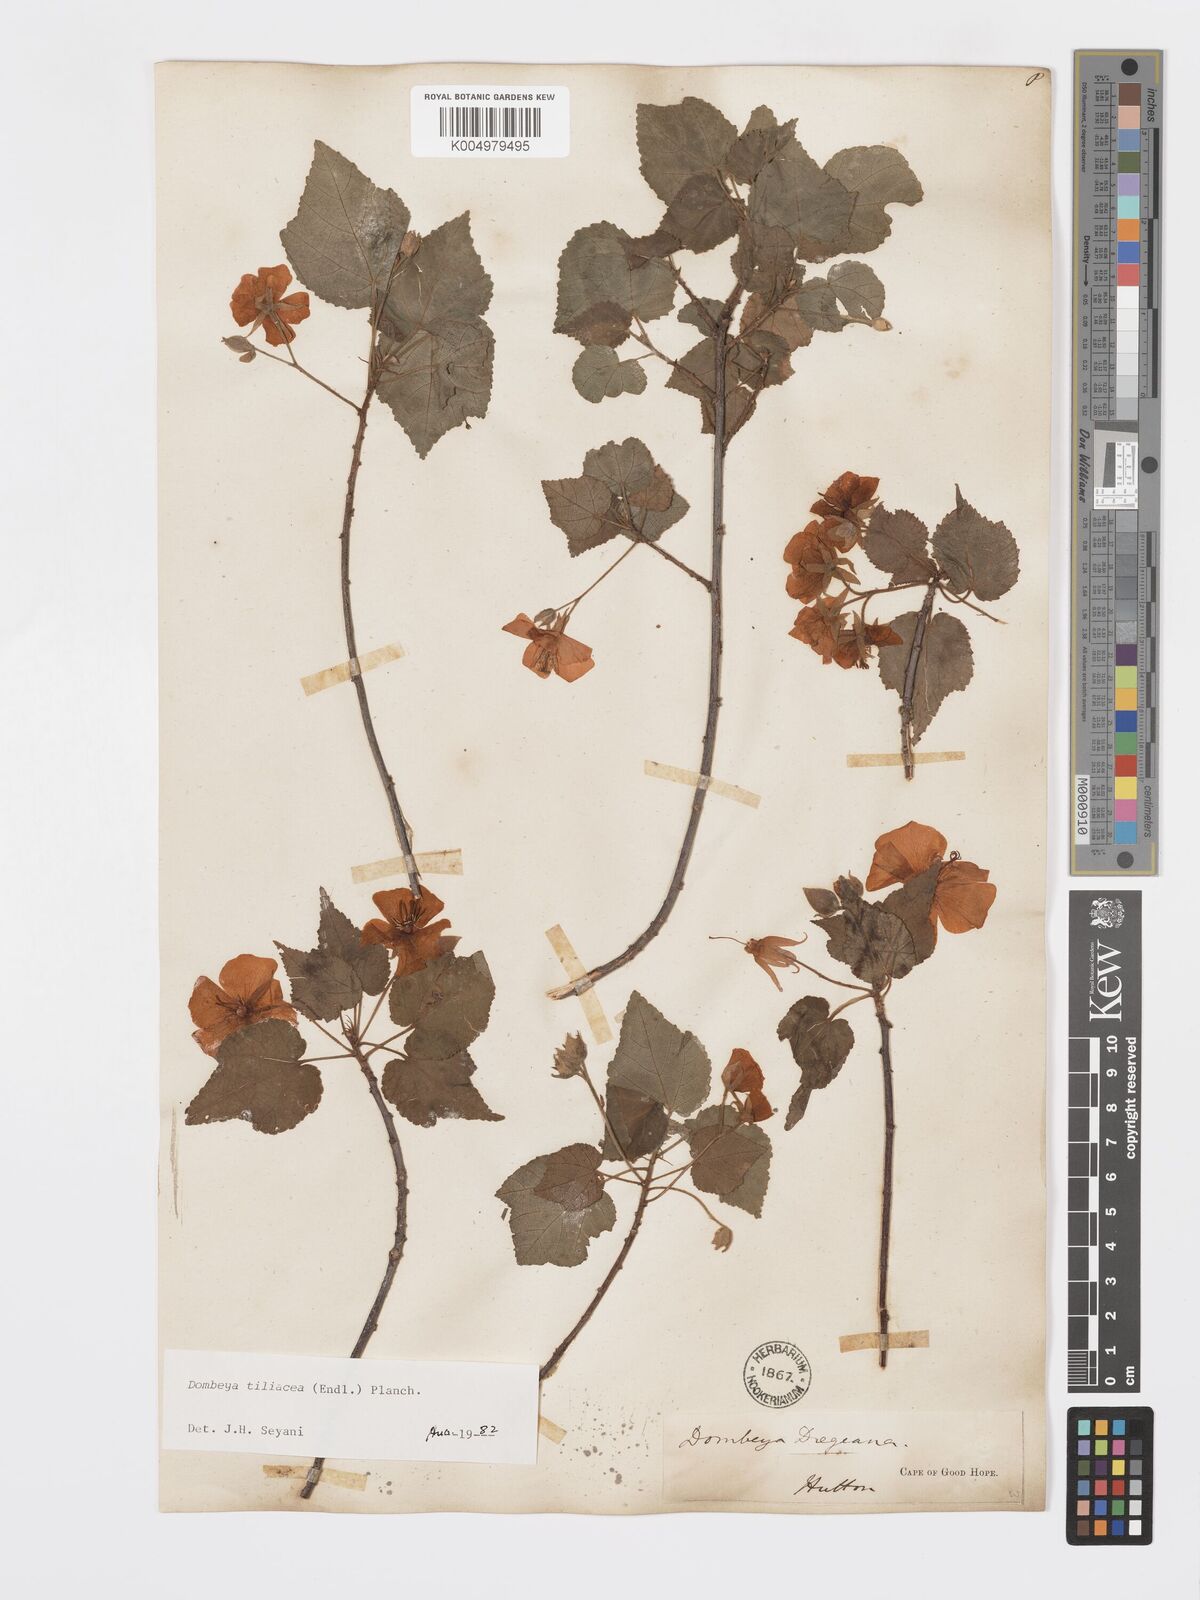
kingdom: Plantae
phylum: Tracheophyta
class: Magnoliopsida
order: Malvales
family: Malvaceae
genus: Dombeya
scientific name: Dombeya tiliacea
